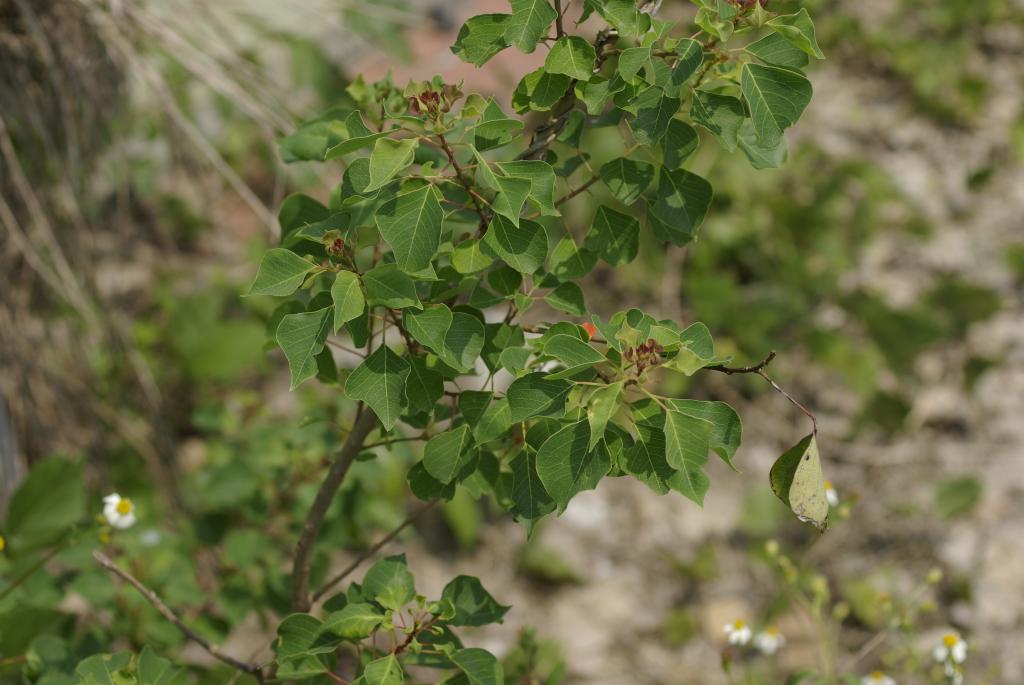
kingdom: Plantae
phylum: Tracheophyta
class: Magnoliopsida
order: Malpighiales
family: Euphorbiaceae
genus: Triadica
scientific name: Triadica sebifera
